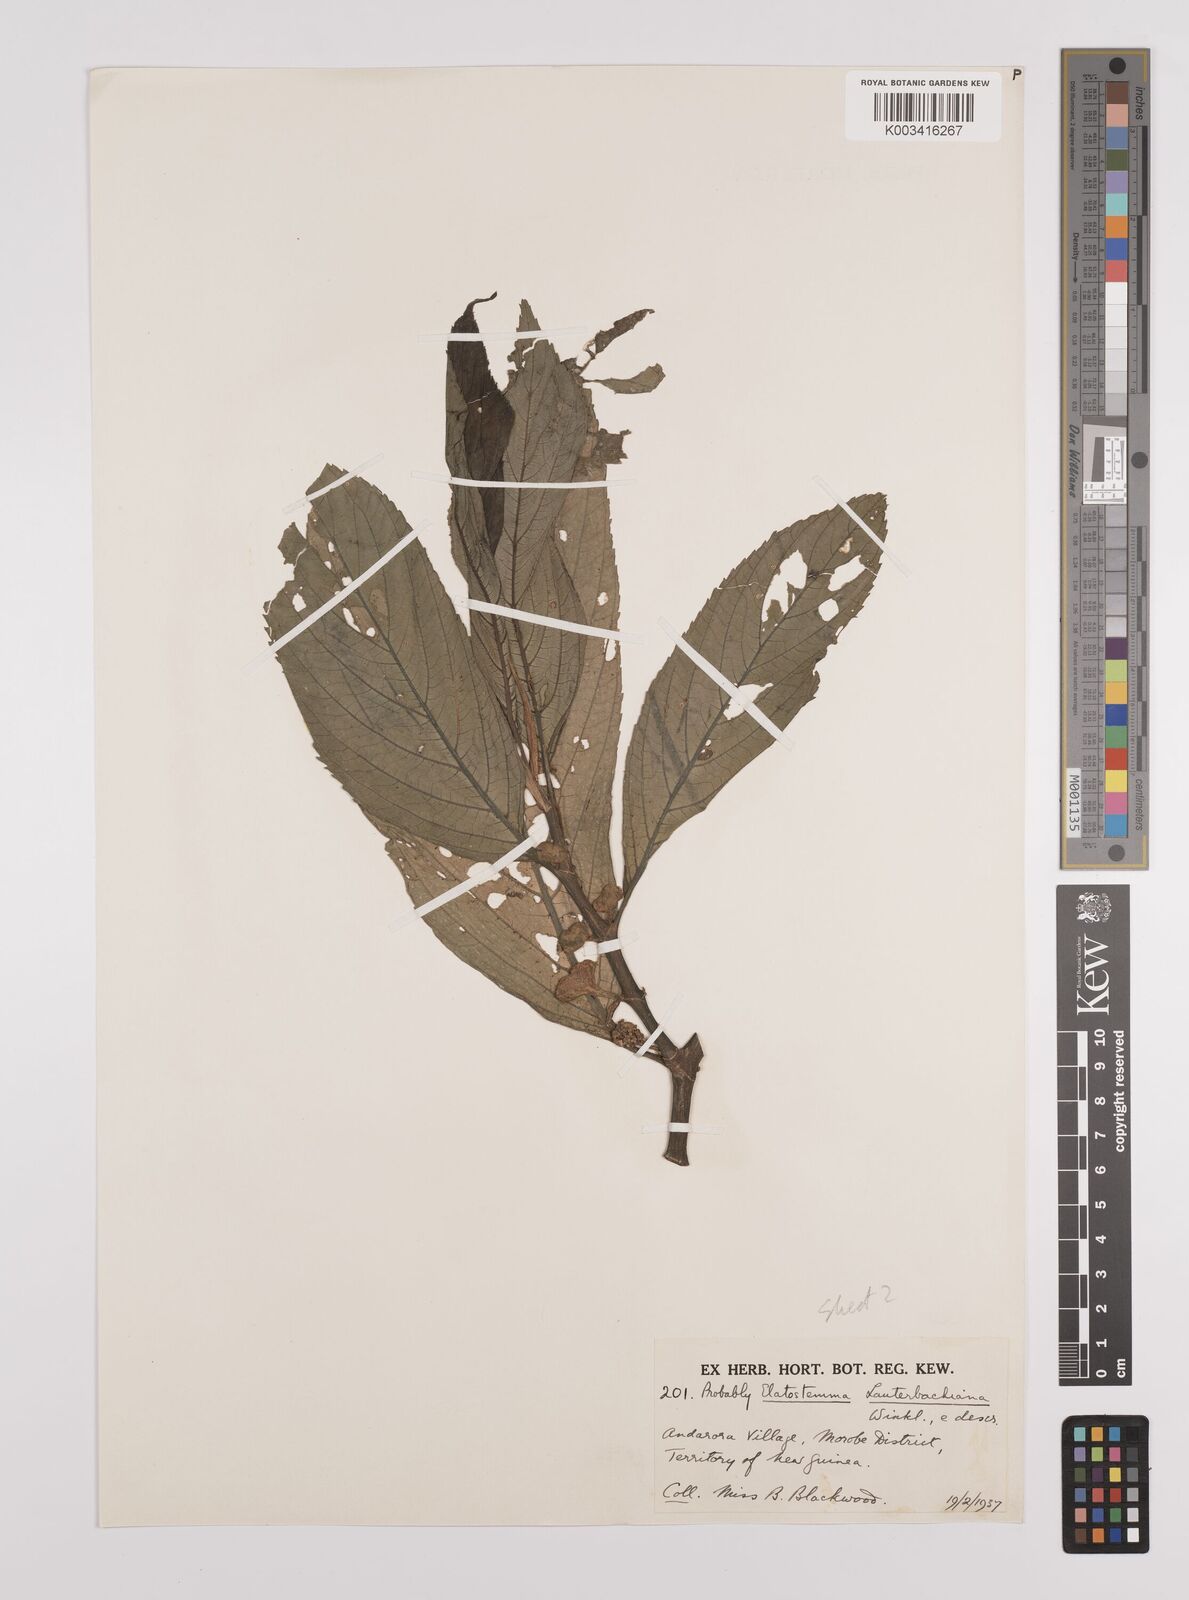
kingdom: Plantae
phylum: Tracheophyta
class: Magnoliopsida
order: Rosales
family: Urticaceae
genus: Elatostema
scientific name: Elatostema lauterbachii
